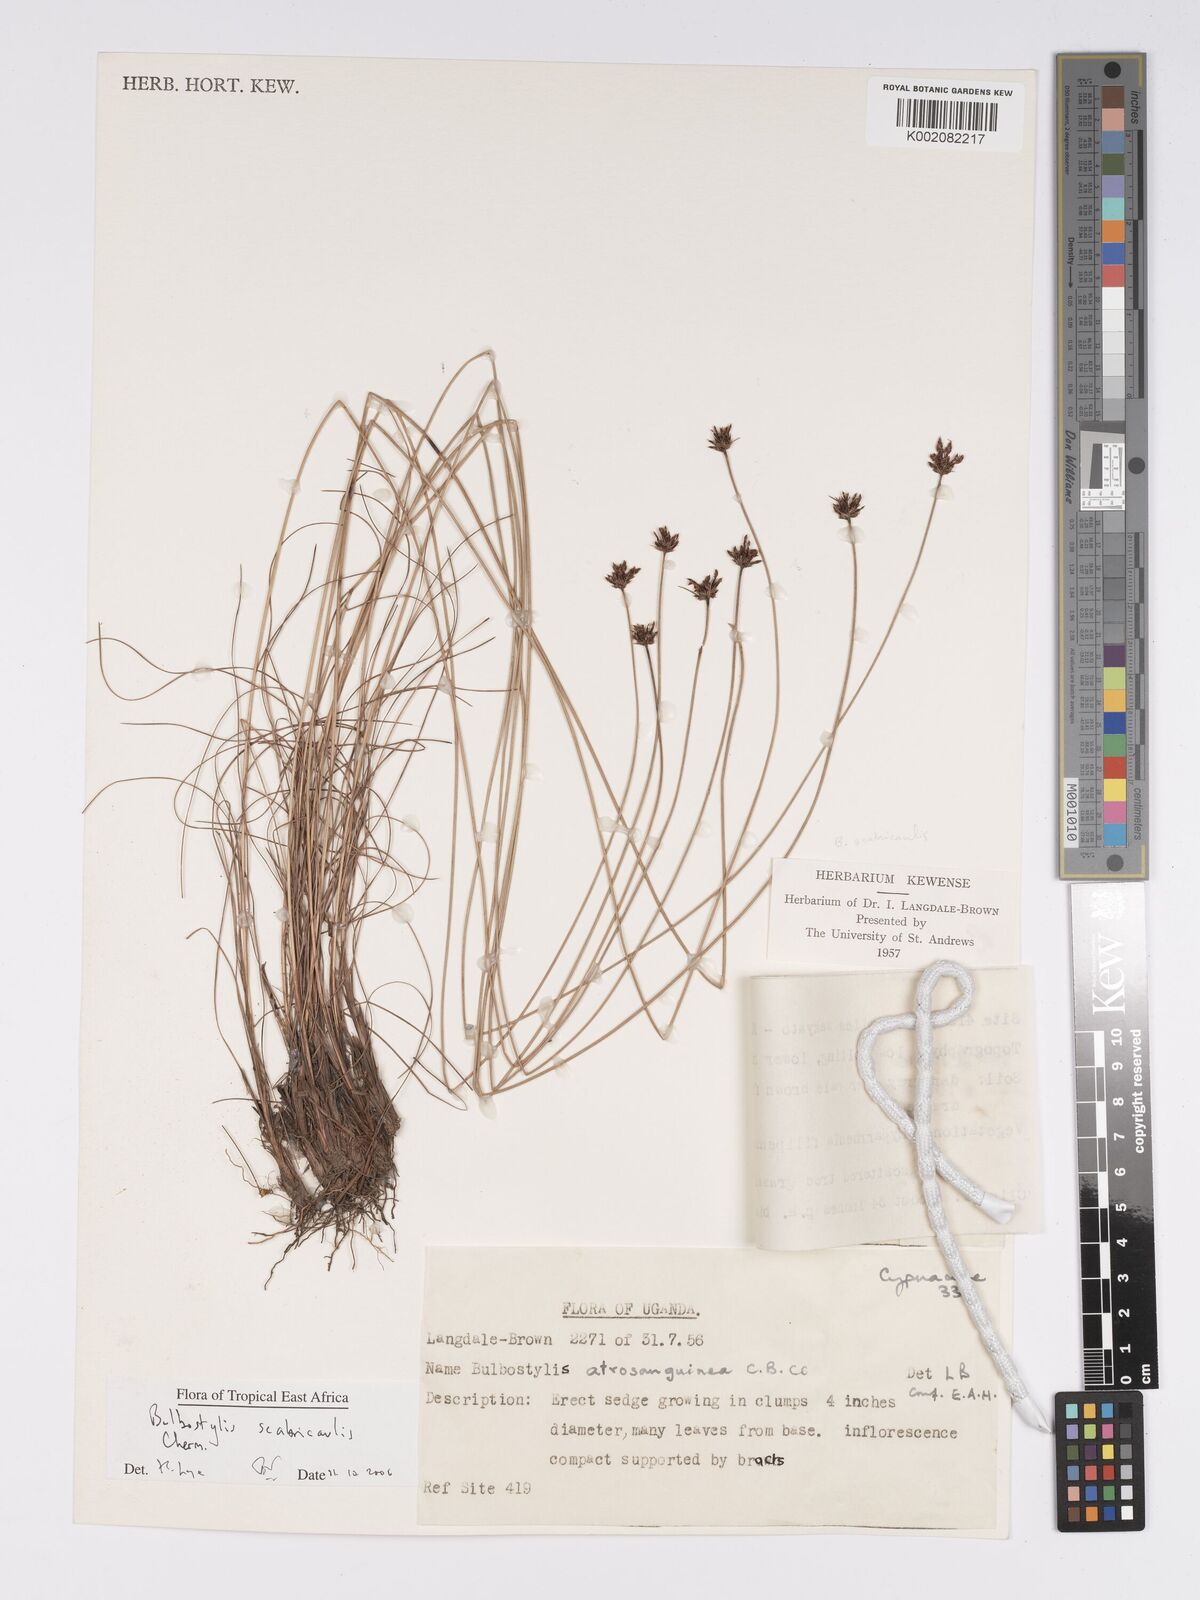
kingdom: Plantae
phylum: Tracheophyta
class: Liliopsida
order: Poales
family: Cyperaceae
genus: Bulbostylis
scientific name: Bulbostylis scabricaulis
